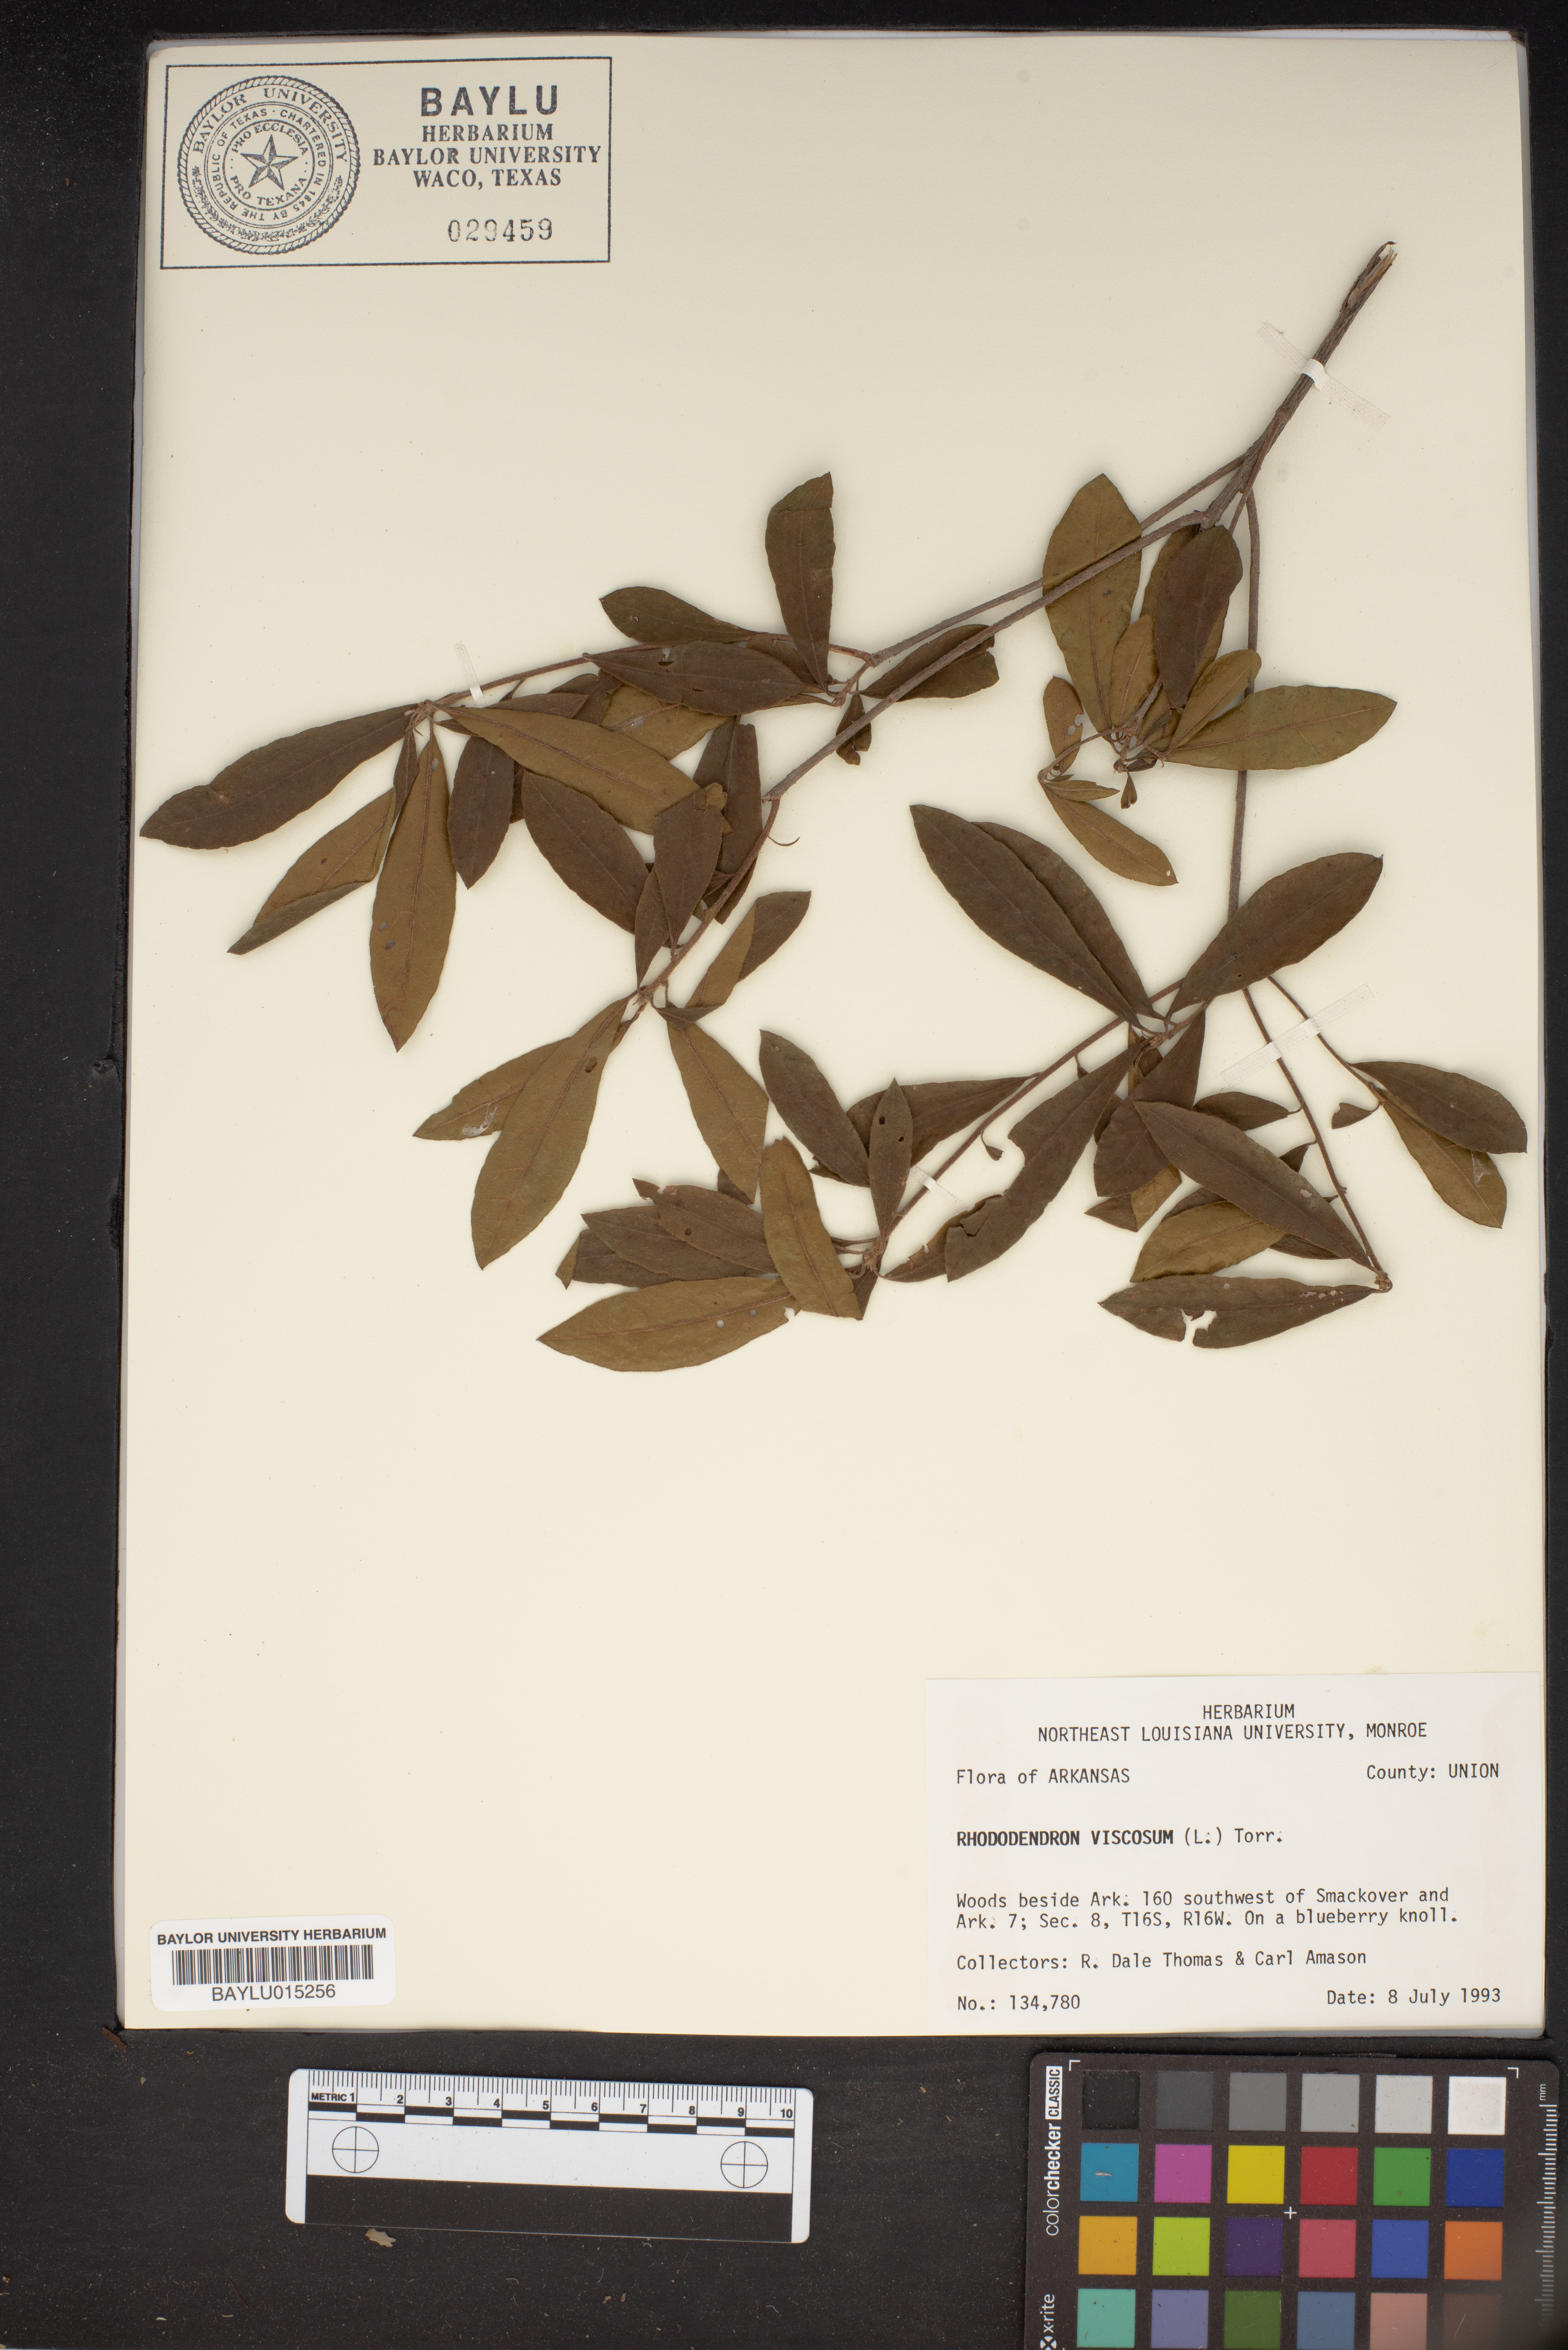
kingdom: Plantae
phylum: Tracheophyta
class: Magnoliopsida
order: Ericales
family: Ericaceae
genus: Rhododendron
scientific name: Rhododendron viscosum
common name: Clammy azalea
